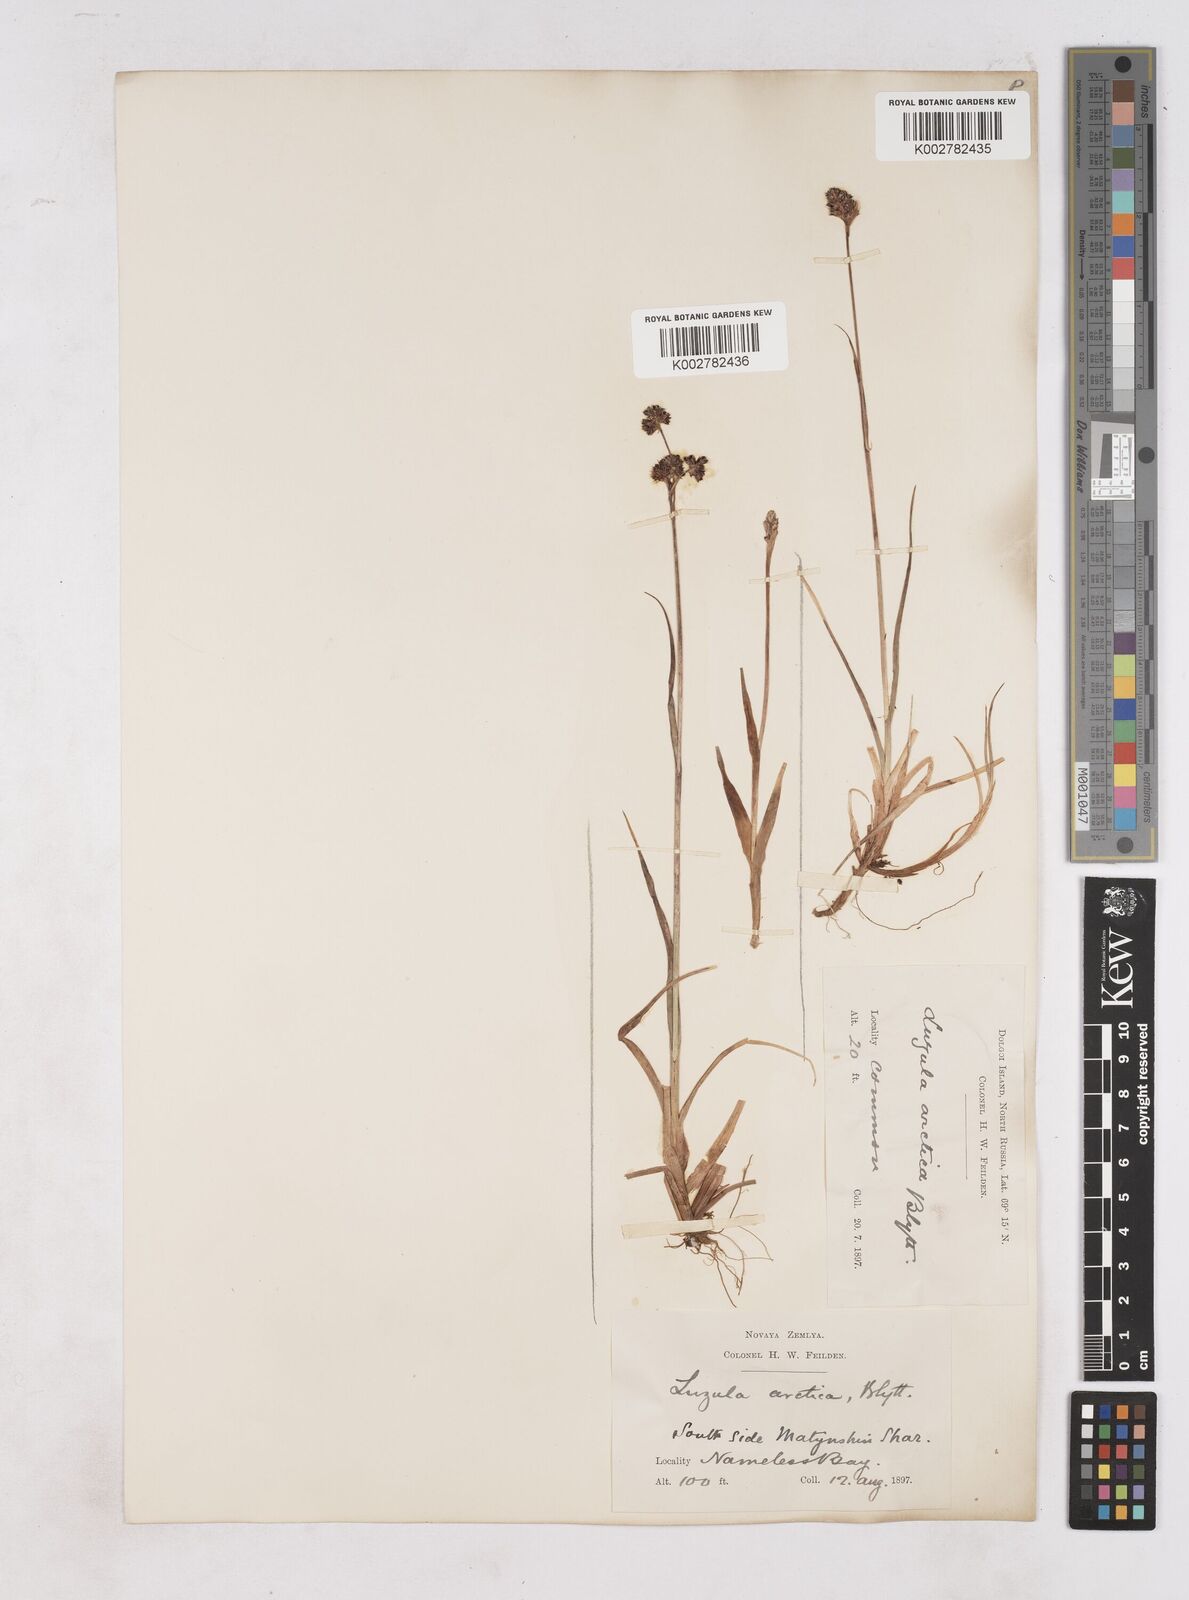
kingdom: Plantae
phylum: Tracheophyta
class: Liliopsida
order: Poales
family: Juncaceae
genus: Luzula
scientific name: Luzula nivalis
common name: Arctic woodrush
